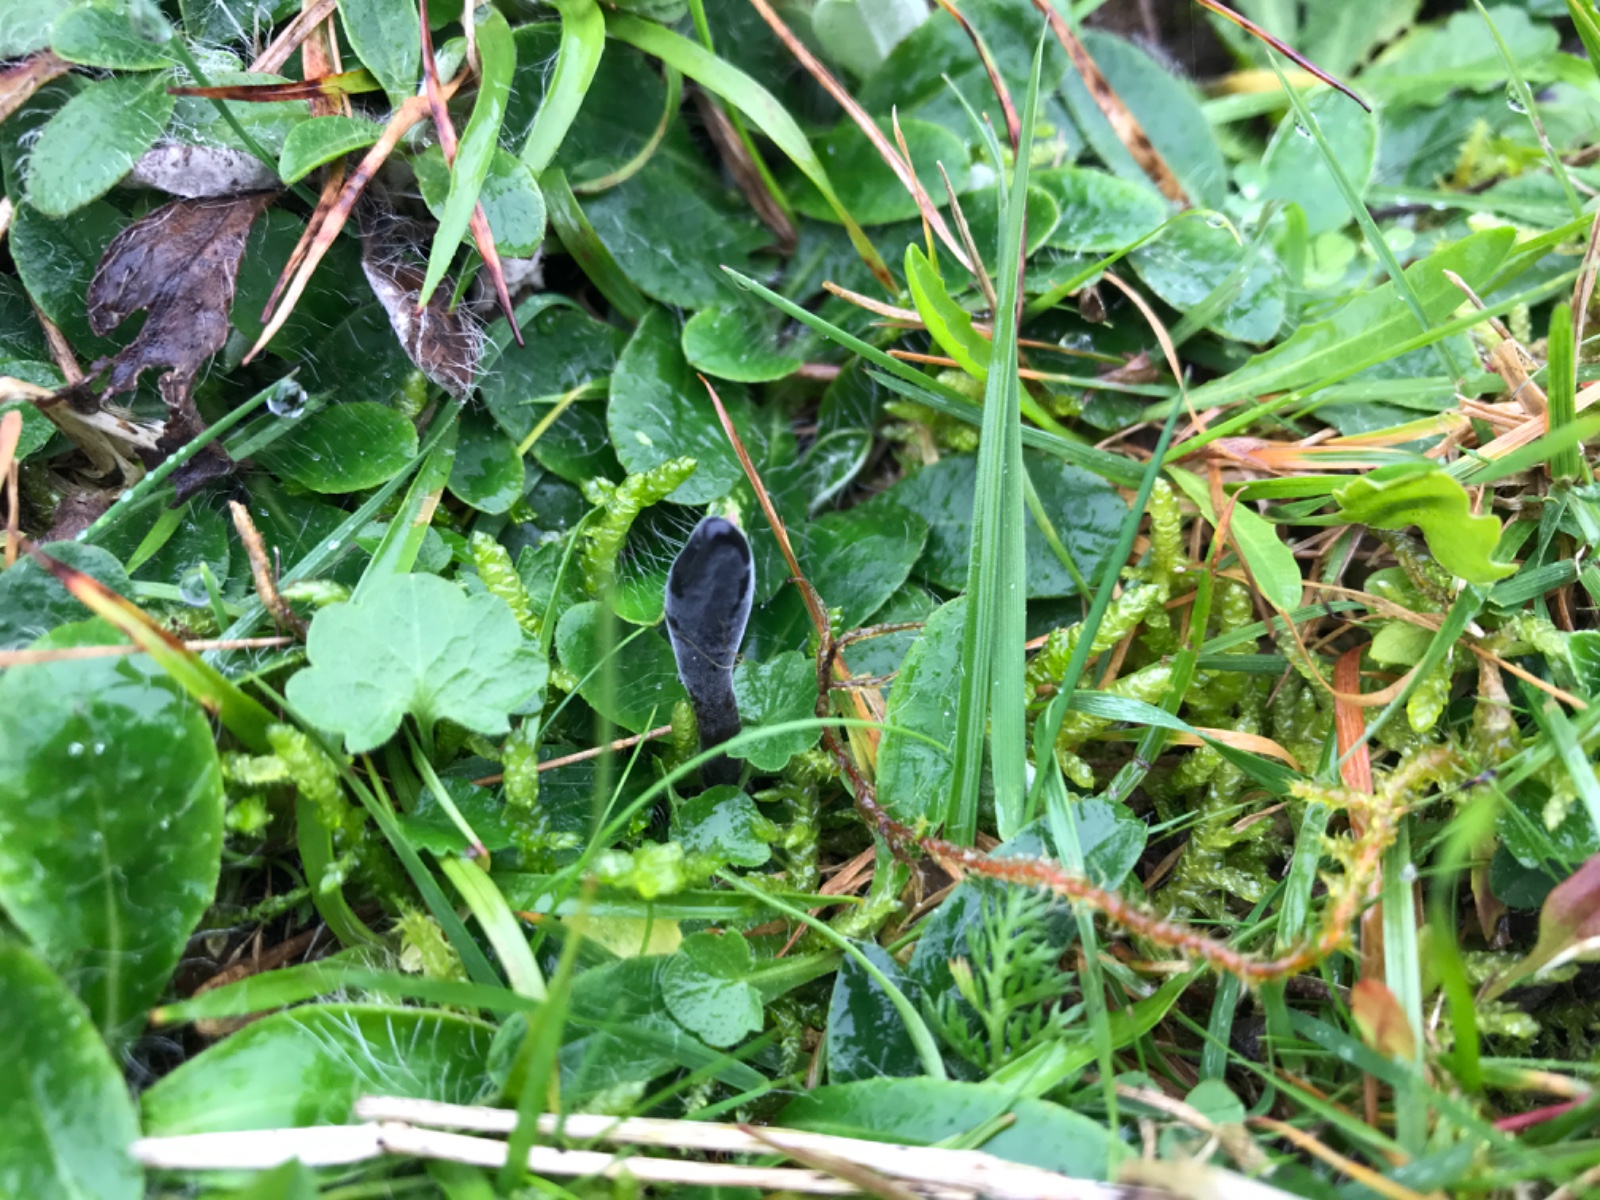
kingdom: Fungi
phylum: Ascomycota
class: Geoglossomycetes
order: Geoglossales
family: Geoglossaceae
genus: Glutinoglossum
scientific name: Glutinoglossum glutinosum
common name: slimet jordtunge
